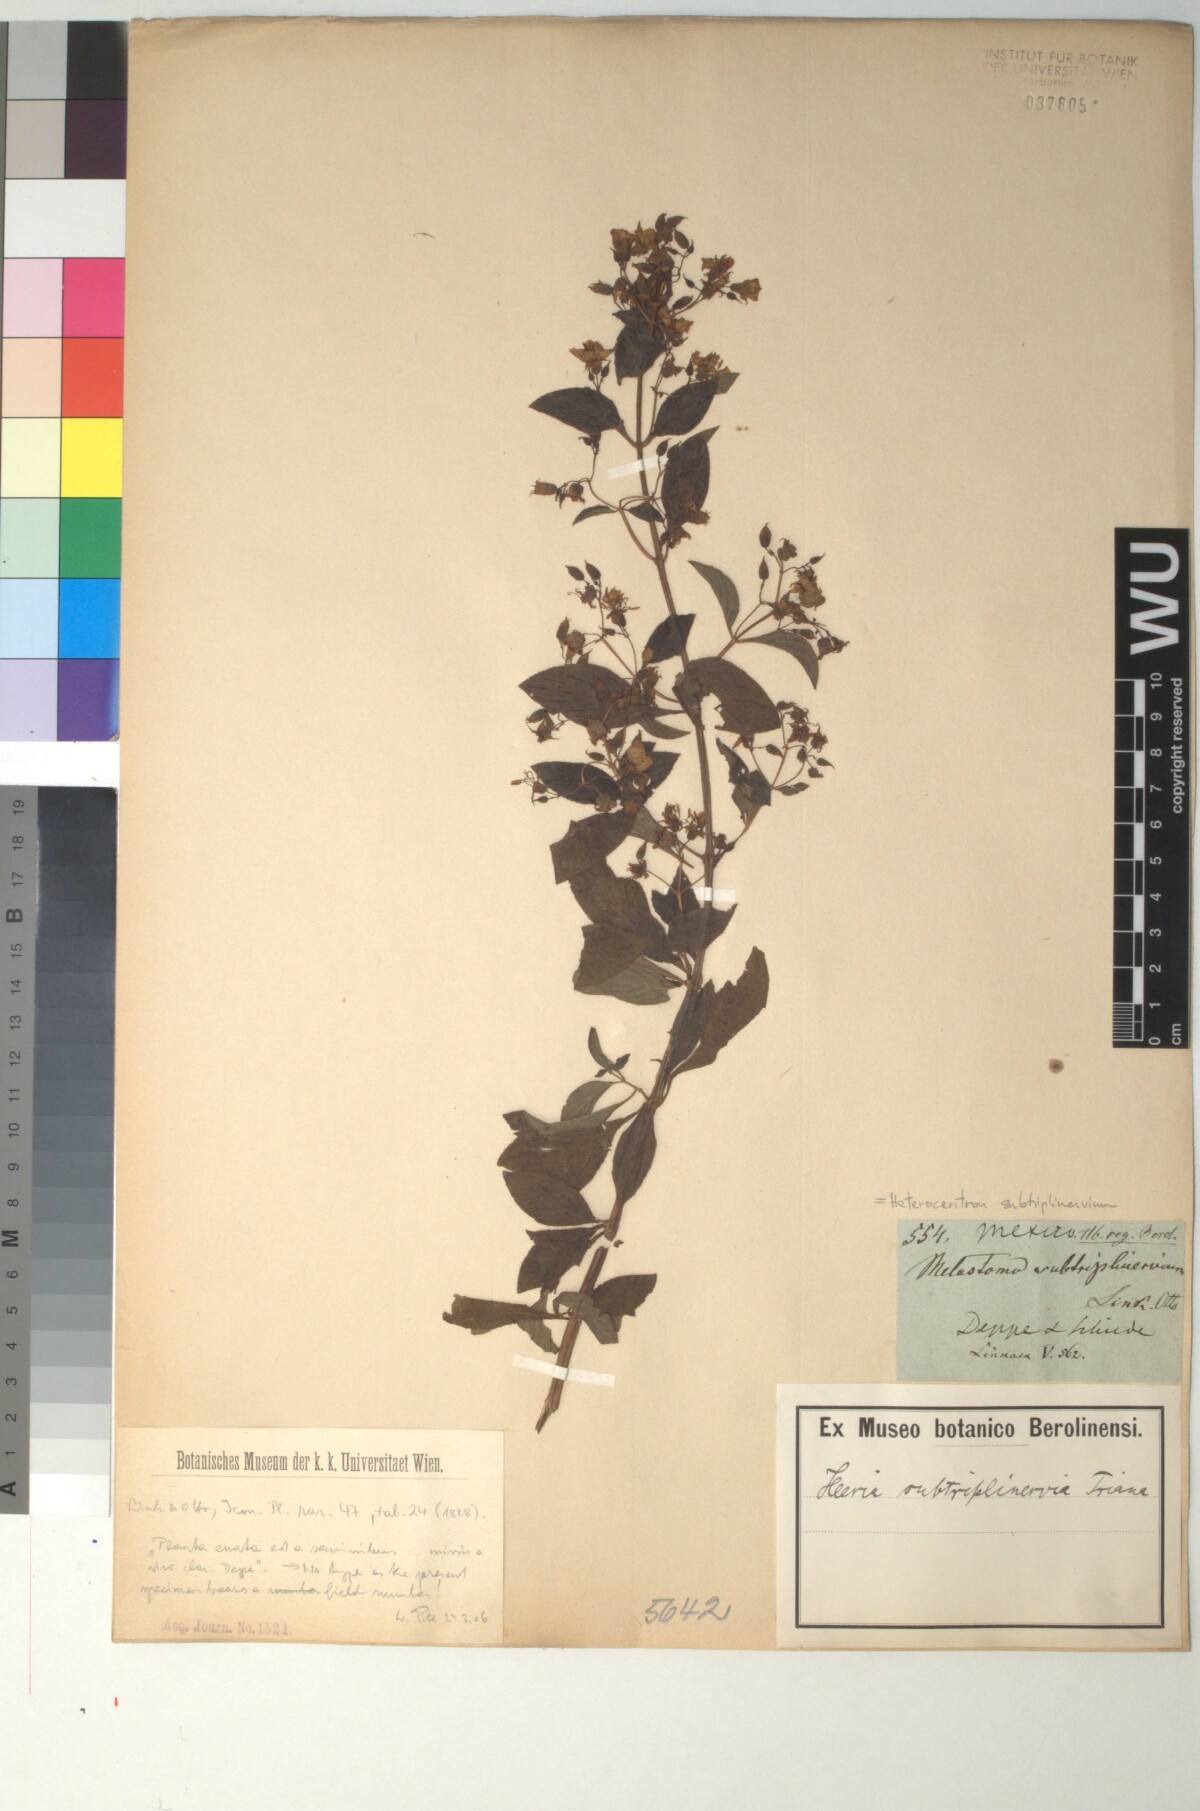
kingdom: Plantae
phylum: Tracheophyta
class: Magnoliopsida
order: Myrtales
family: Melastomataceae
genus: Heterocentron
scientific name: Heterocentron subtriplinervium
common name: Pearl flower
